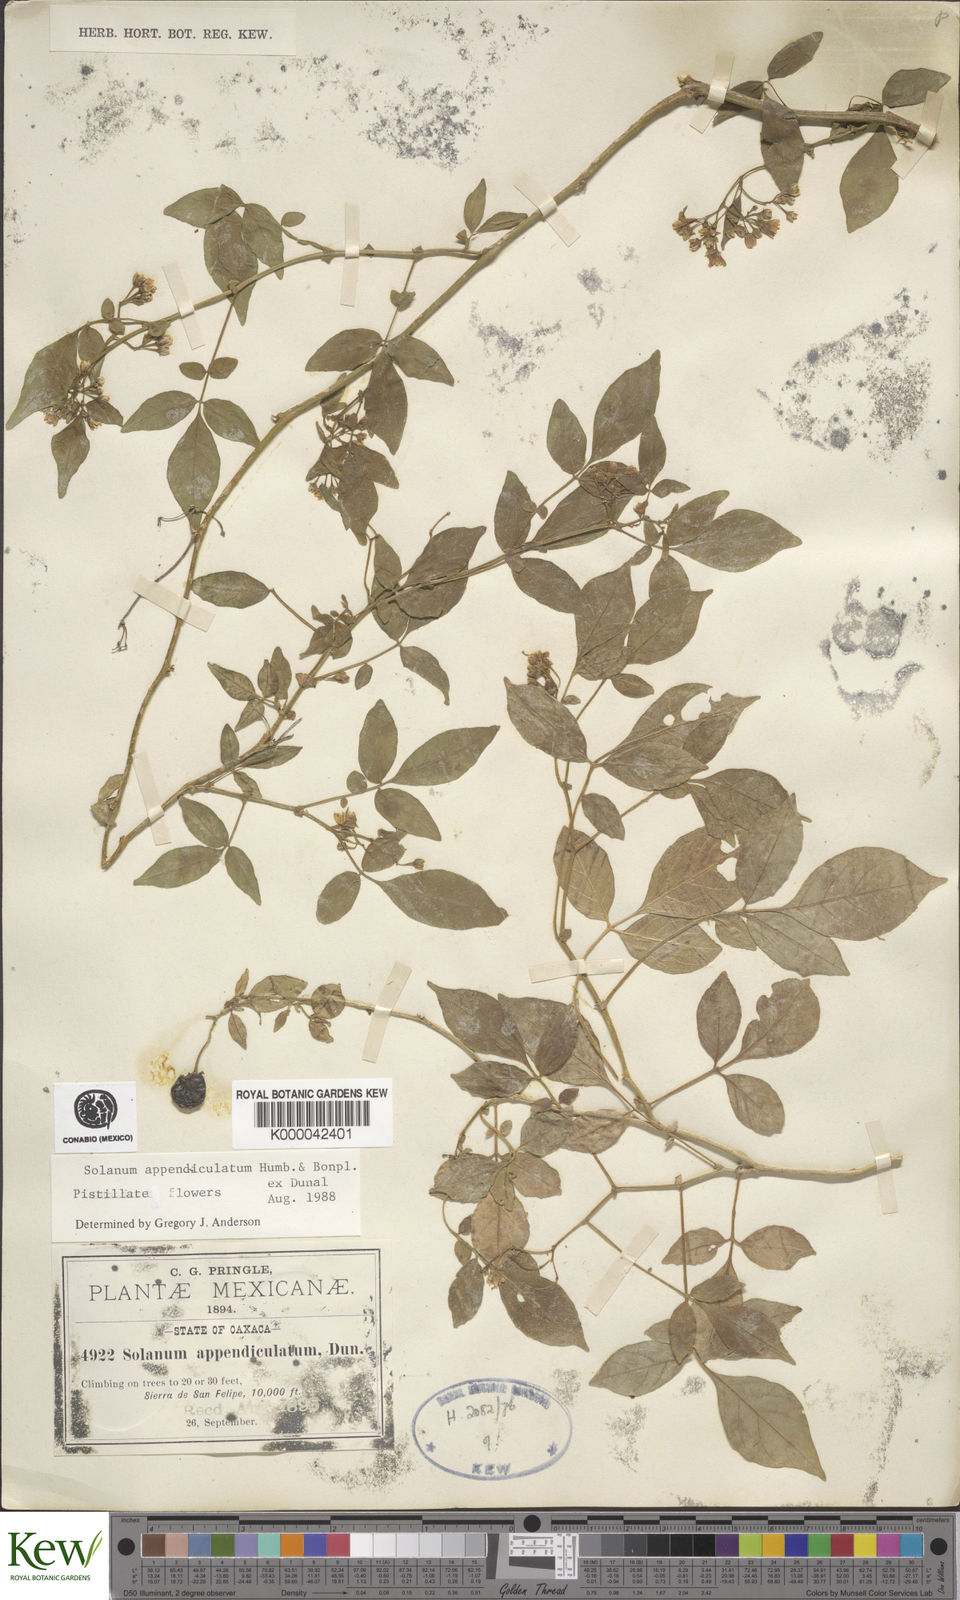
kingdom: Plantae
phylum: Tracheophyta
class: Magnoliopsida
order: Solanales
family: Solanaceae
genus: Solanum
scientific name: Solanum appendiculatum
